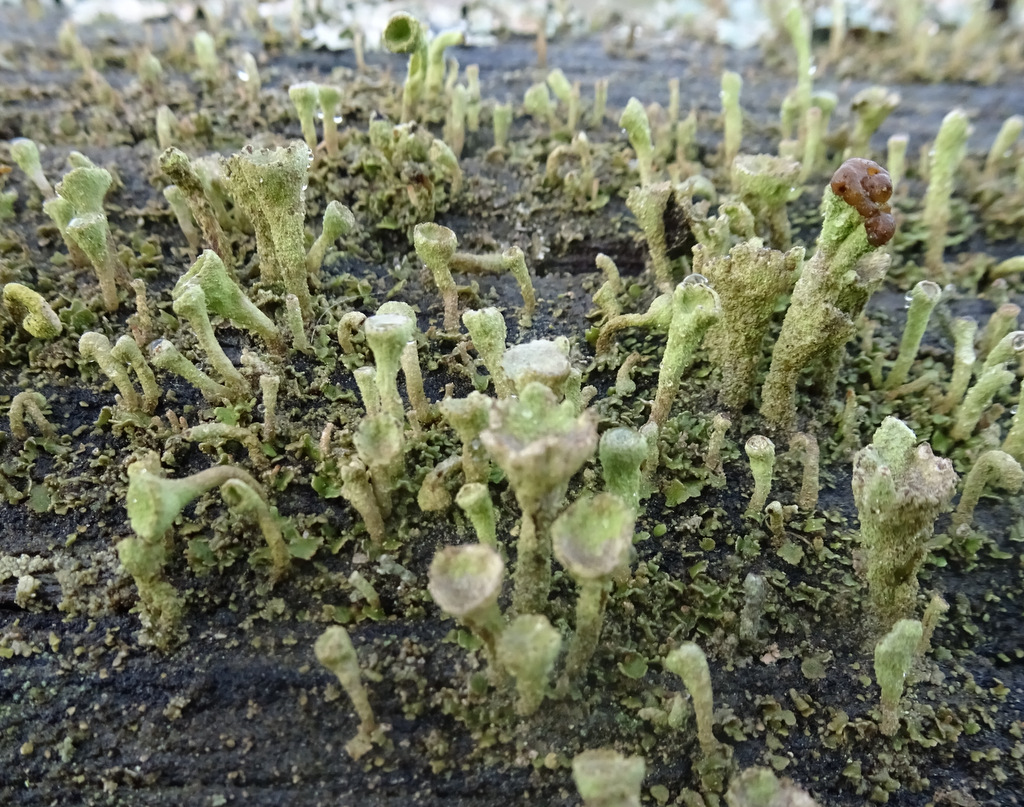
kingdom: Fungi
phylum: Ascomycota
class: Lecanoromycetes
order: Lecanorales
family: Cladoniaceae
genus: Cladonia
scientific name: Cladonia
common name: brungrøn bægerlav
